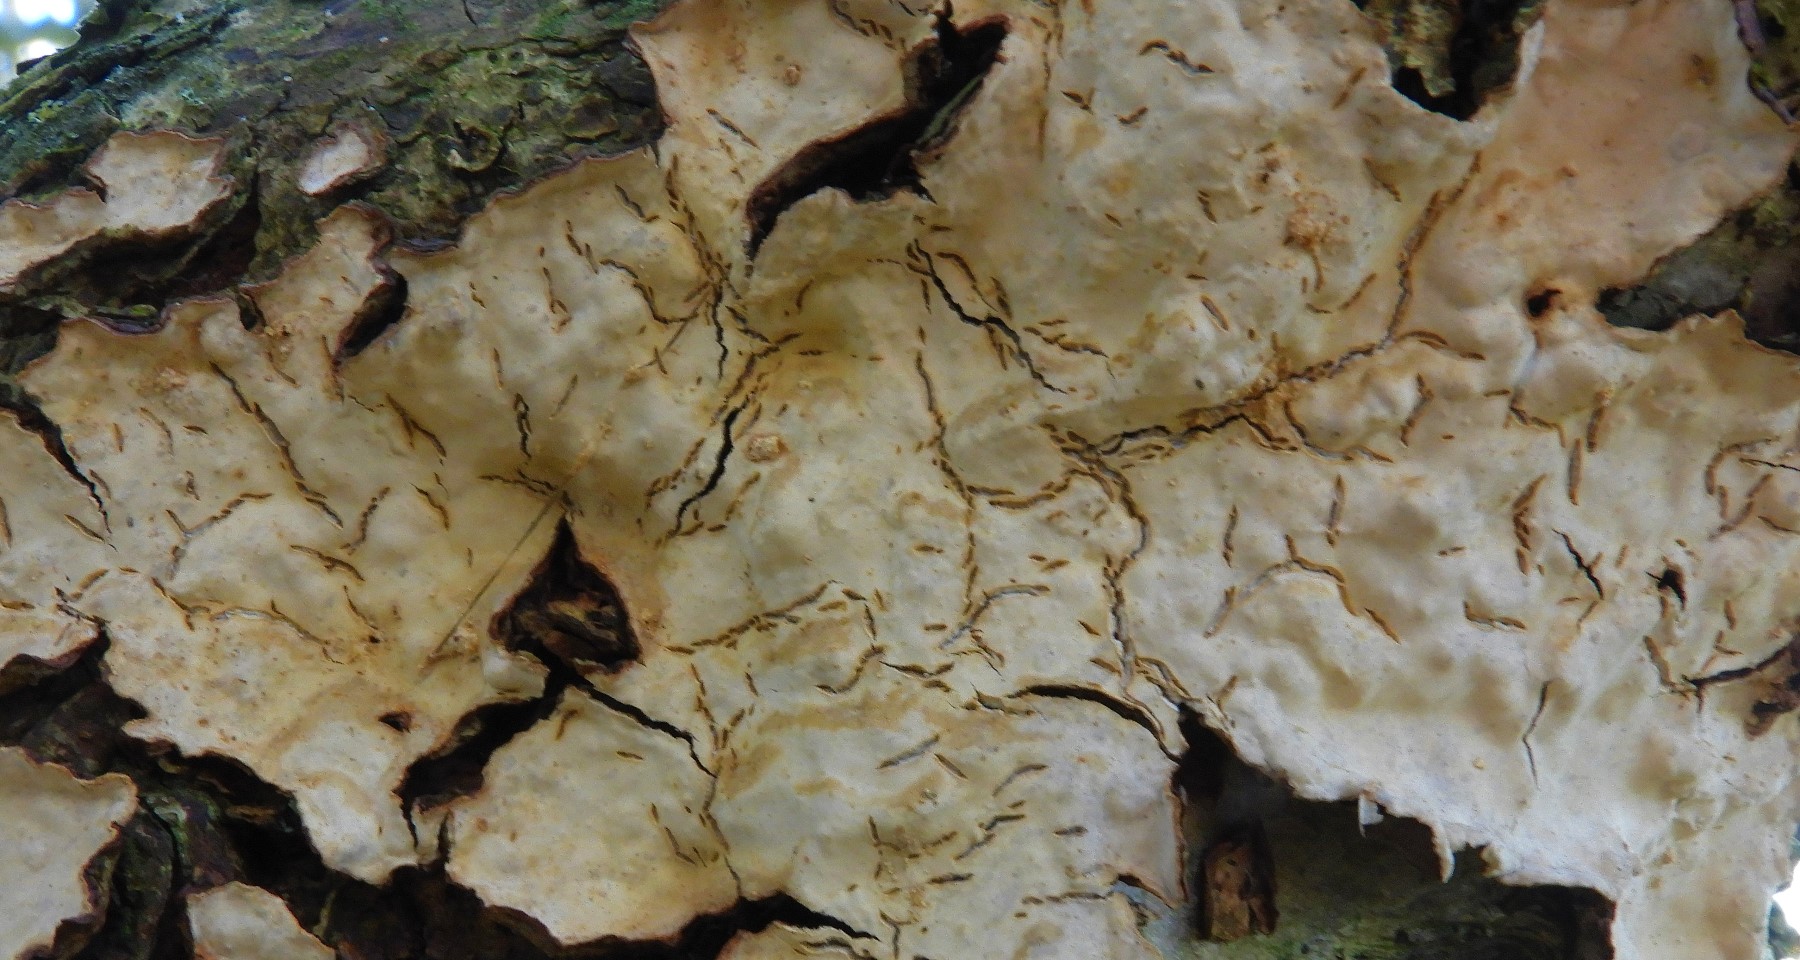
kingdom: Fungi
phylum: Basidiomycota
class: Agaricomycetes
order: Russulales
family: Stereaceae
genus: Stereum
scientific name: Stereum rugosum
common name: rynket lædersvamp
